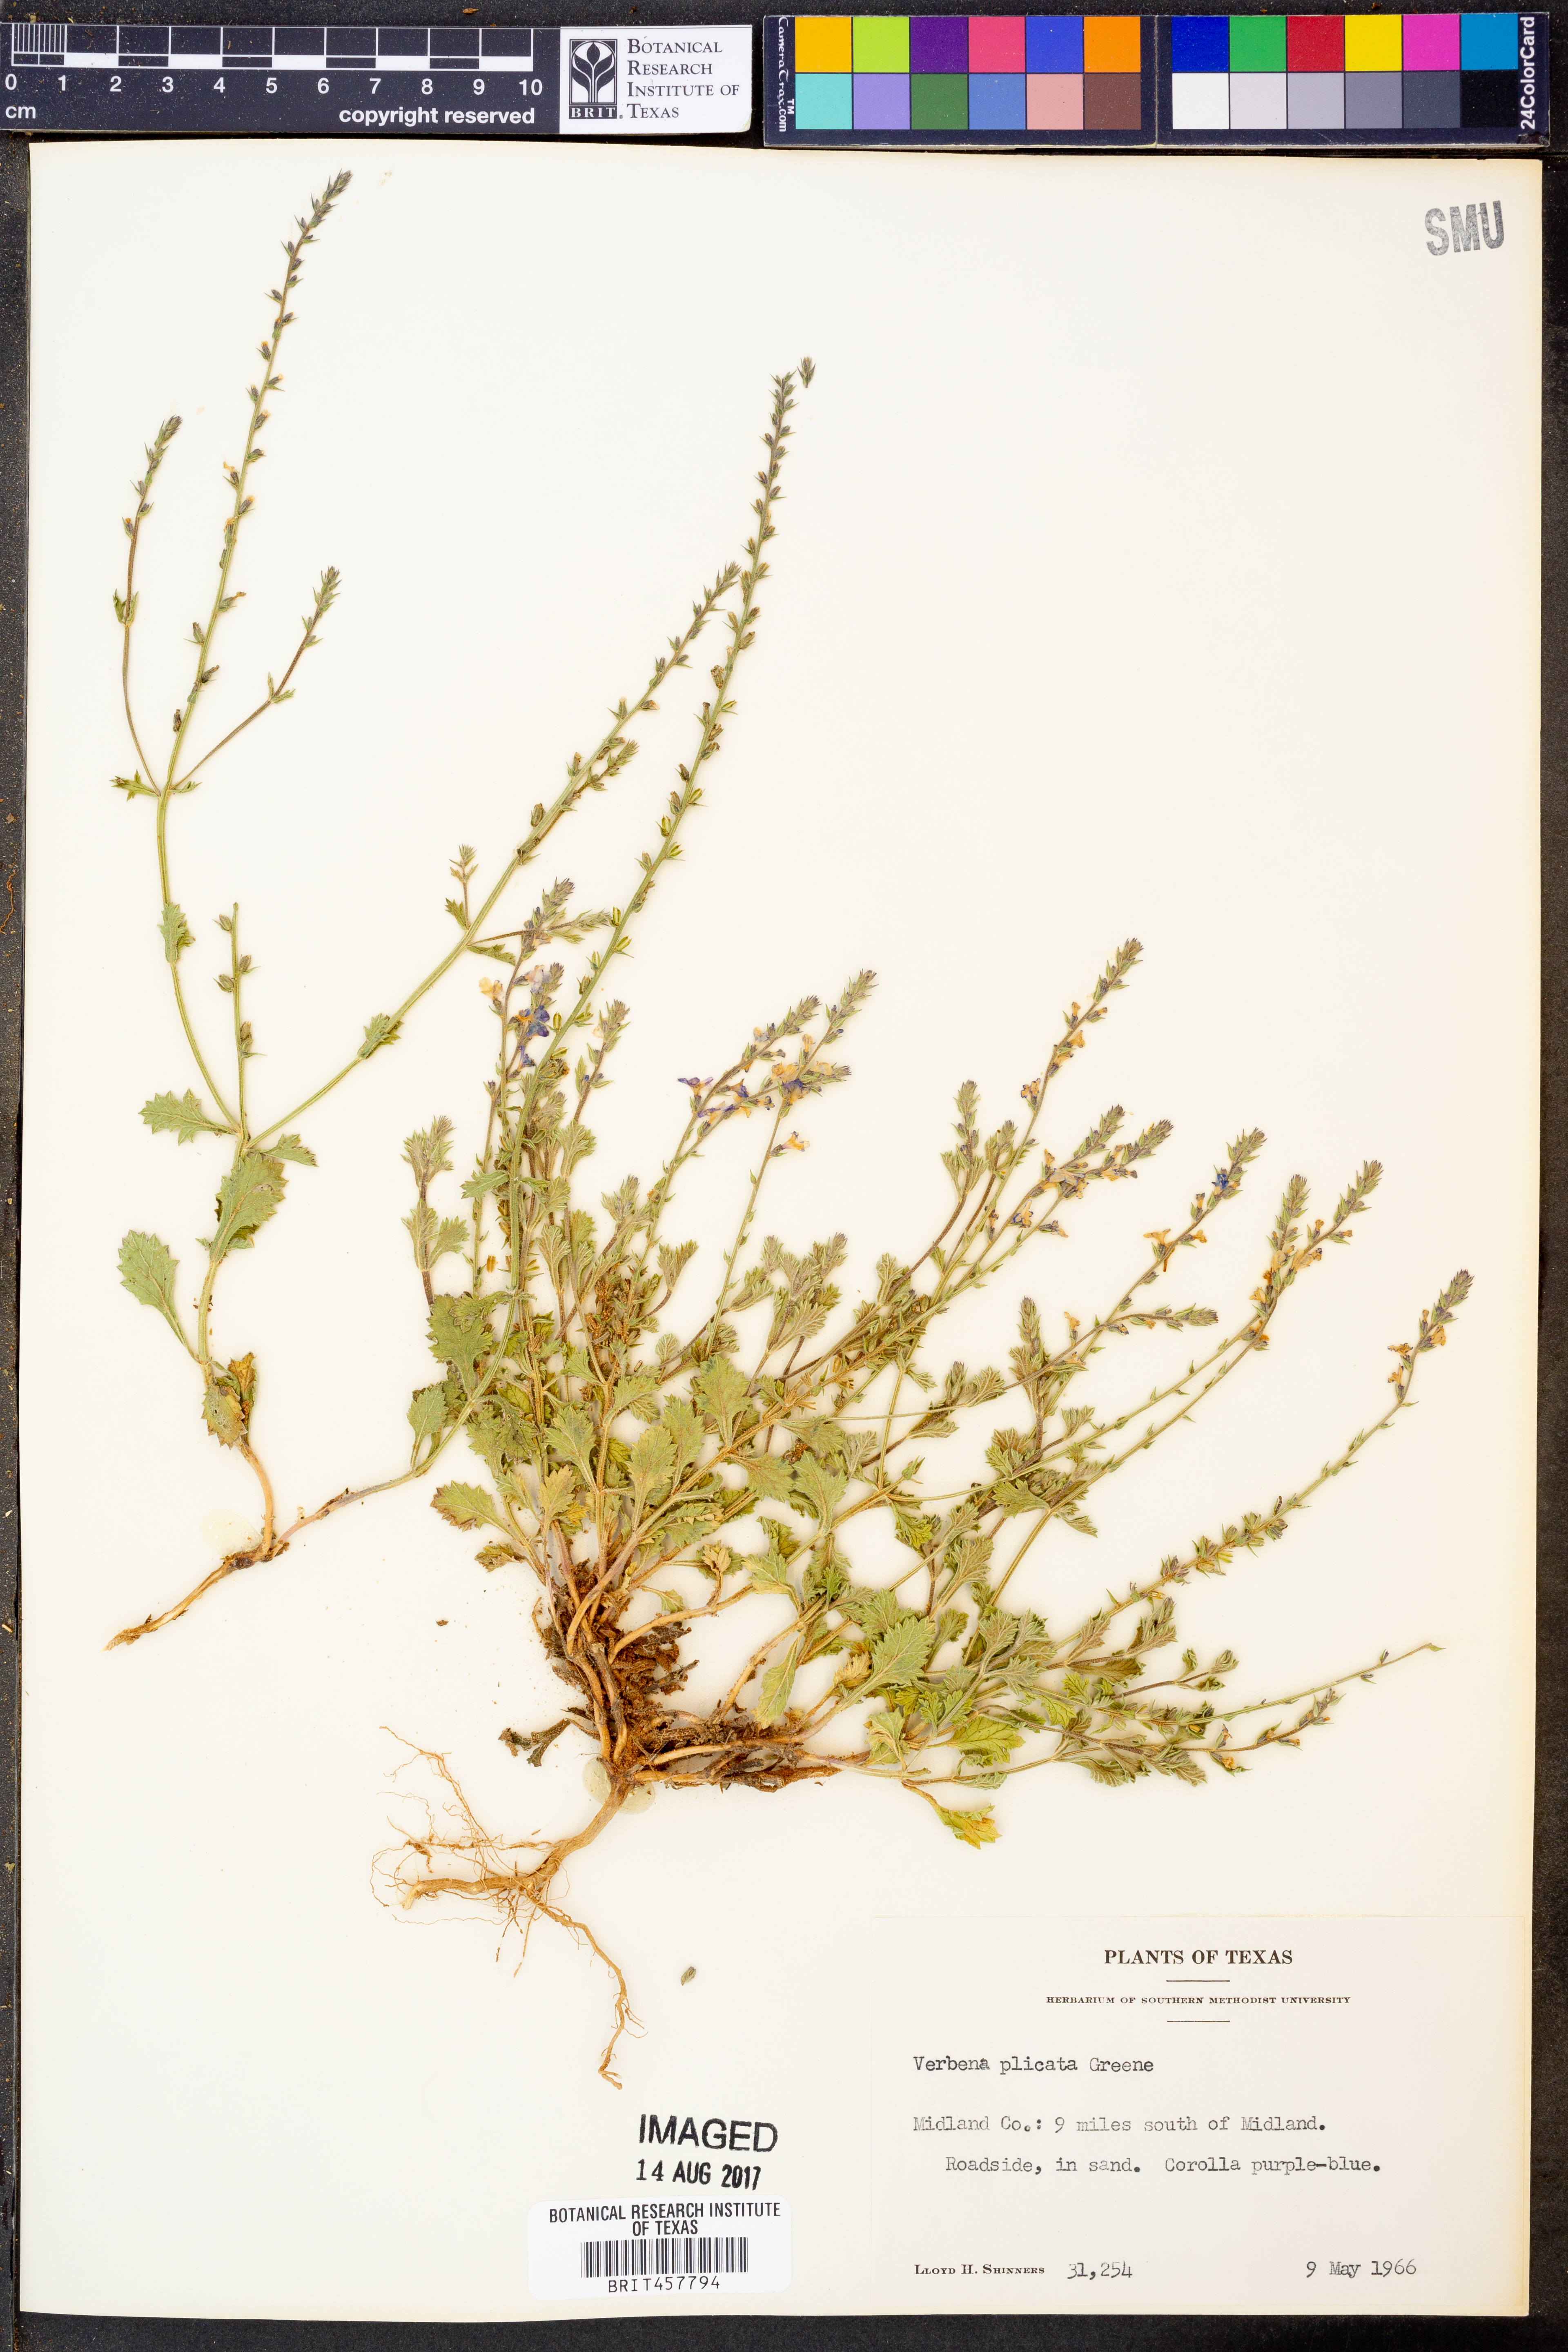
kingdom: Plantae
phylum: Tracheophyta
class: Magnoliopsida
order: Lamiales
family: Verbenaceae
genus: Verbena
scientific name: Verbena plicata
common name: Fan-leaf vervain
